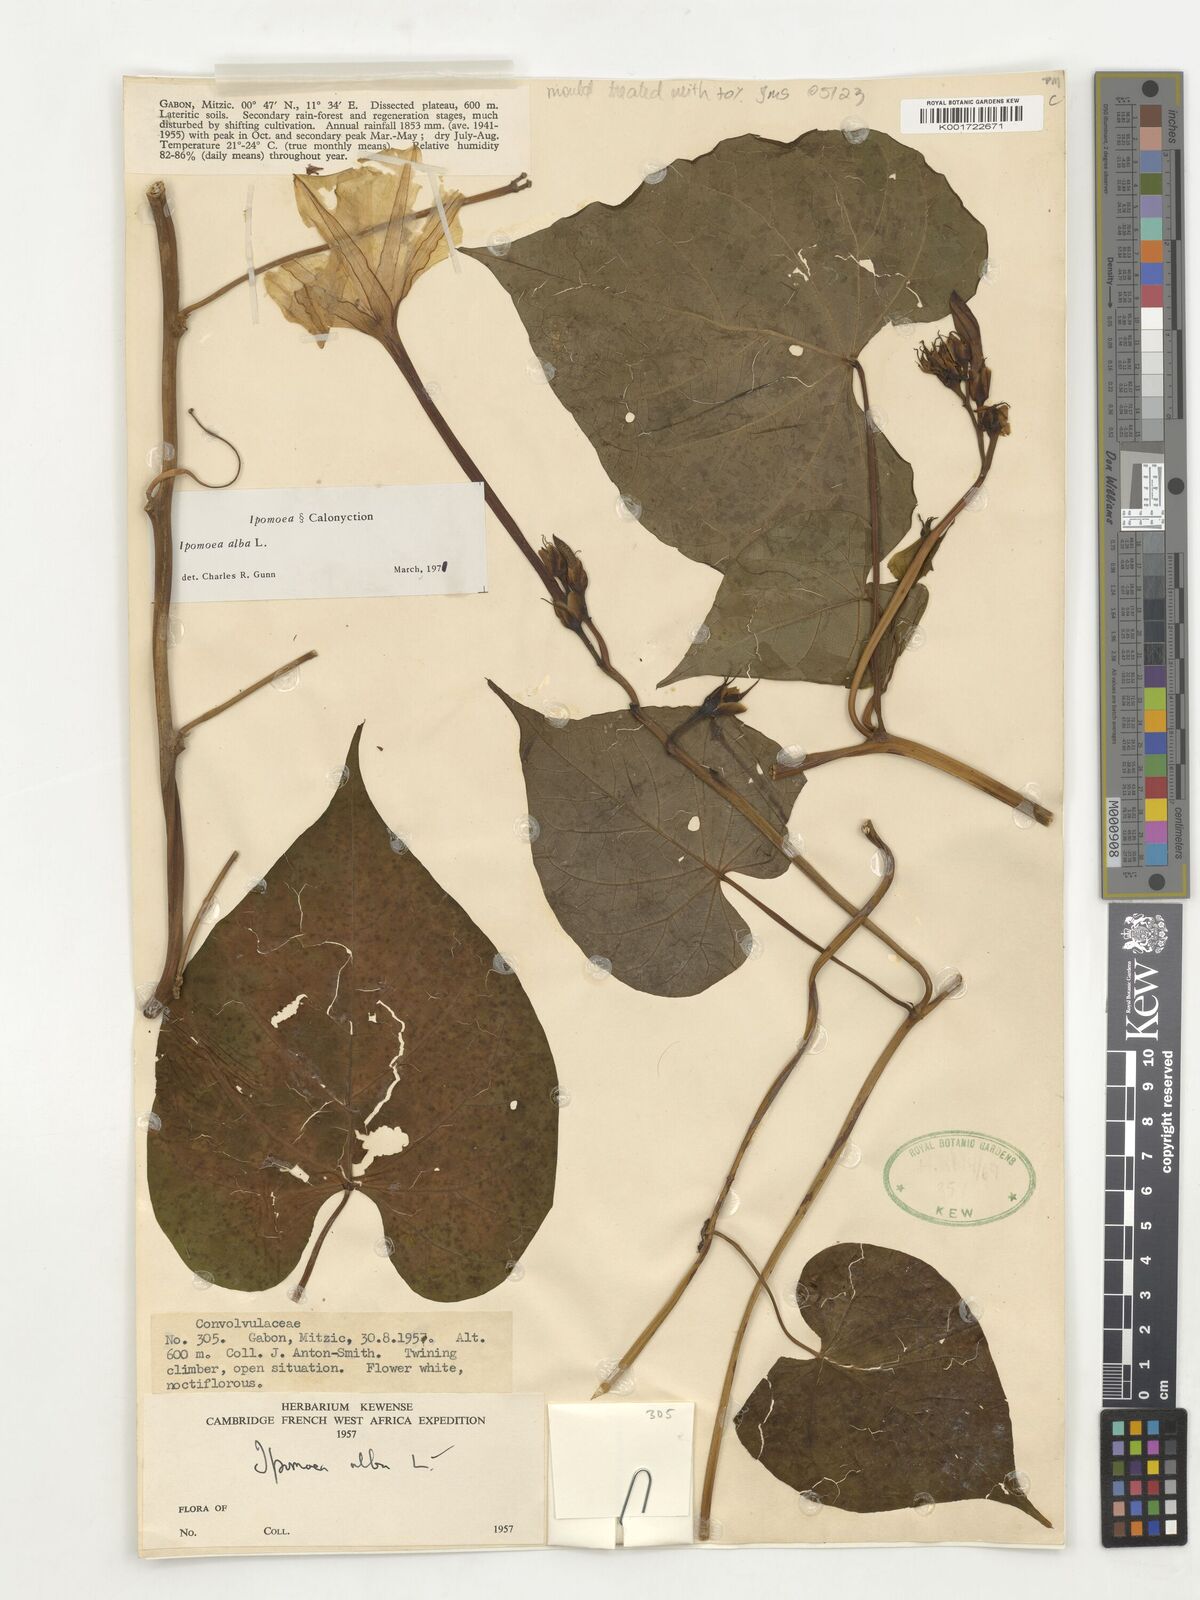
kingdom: Plantae
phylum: Tracheophyta
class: Magnoliopsida
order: Solanales
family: Convolvulaceae
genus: Ipomoea
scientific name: Ipomoea alba
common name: Moonflower
